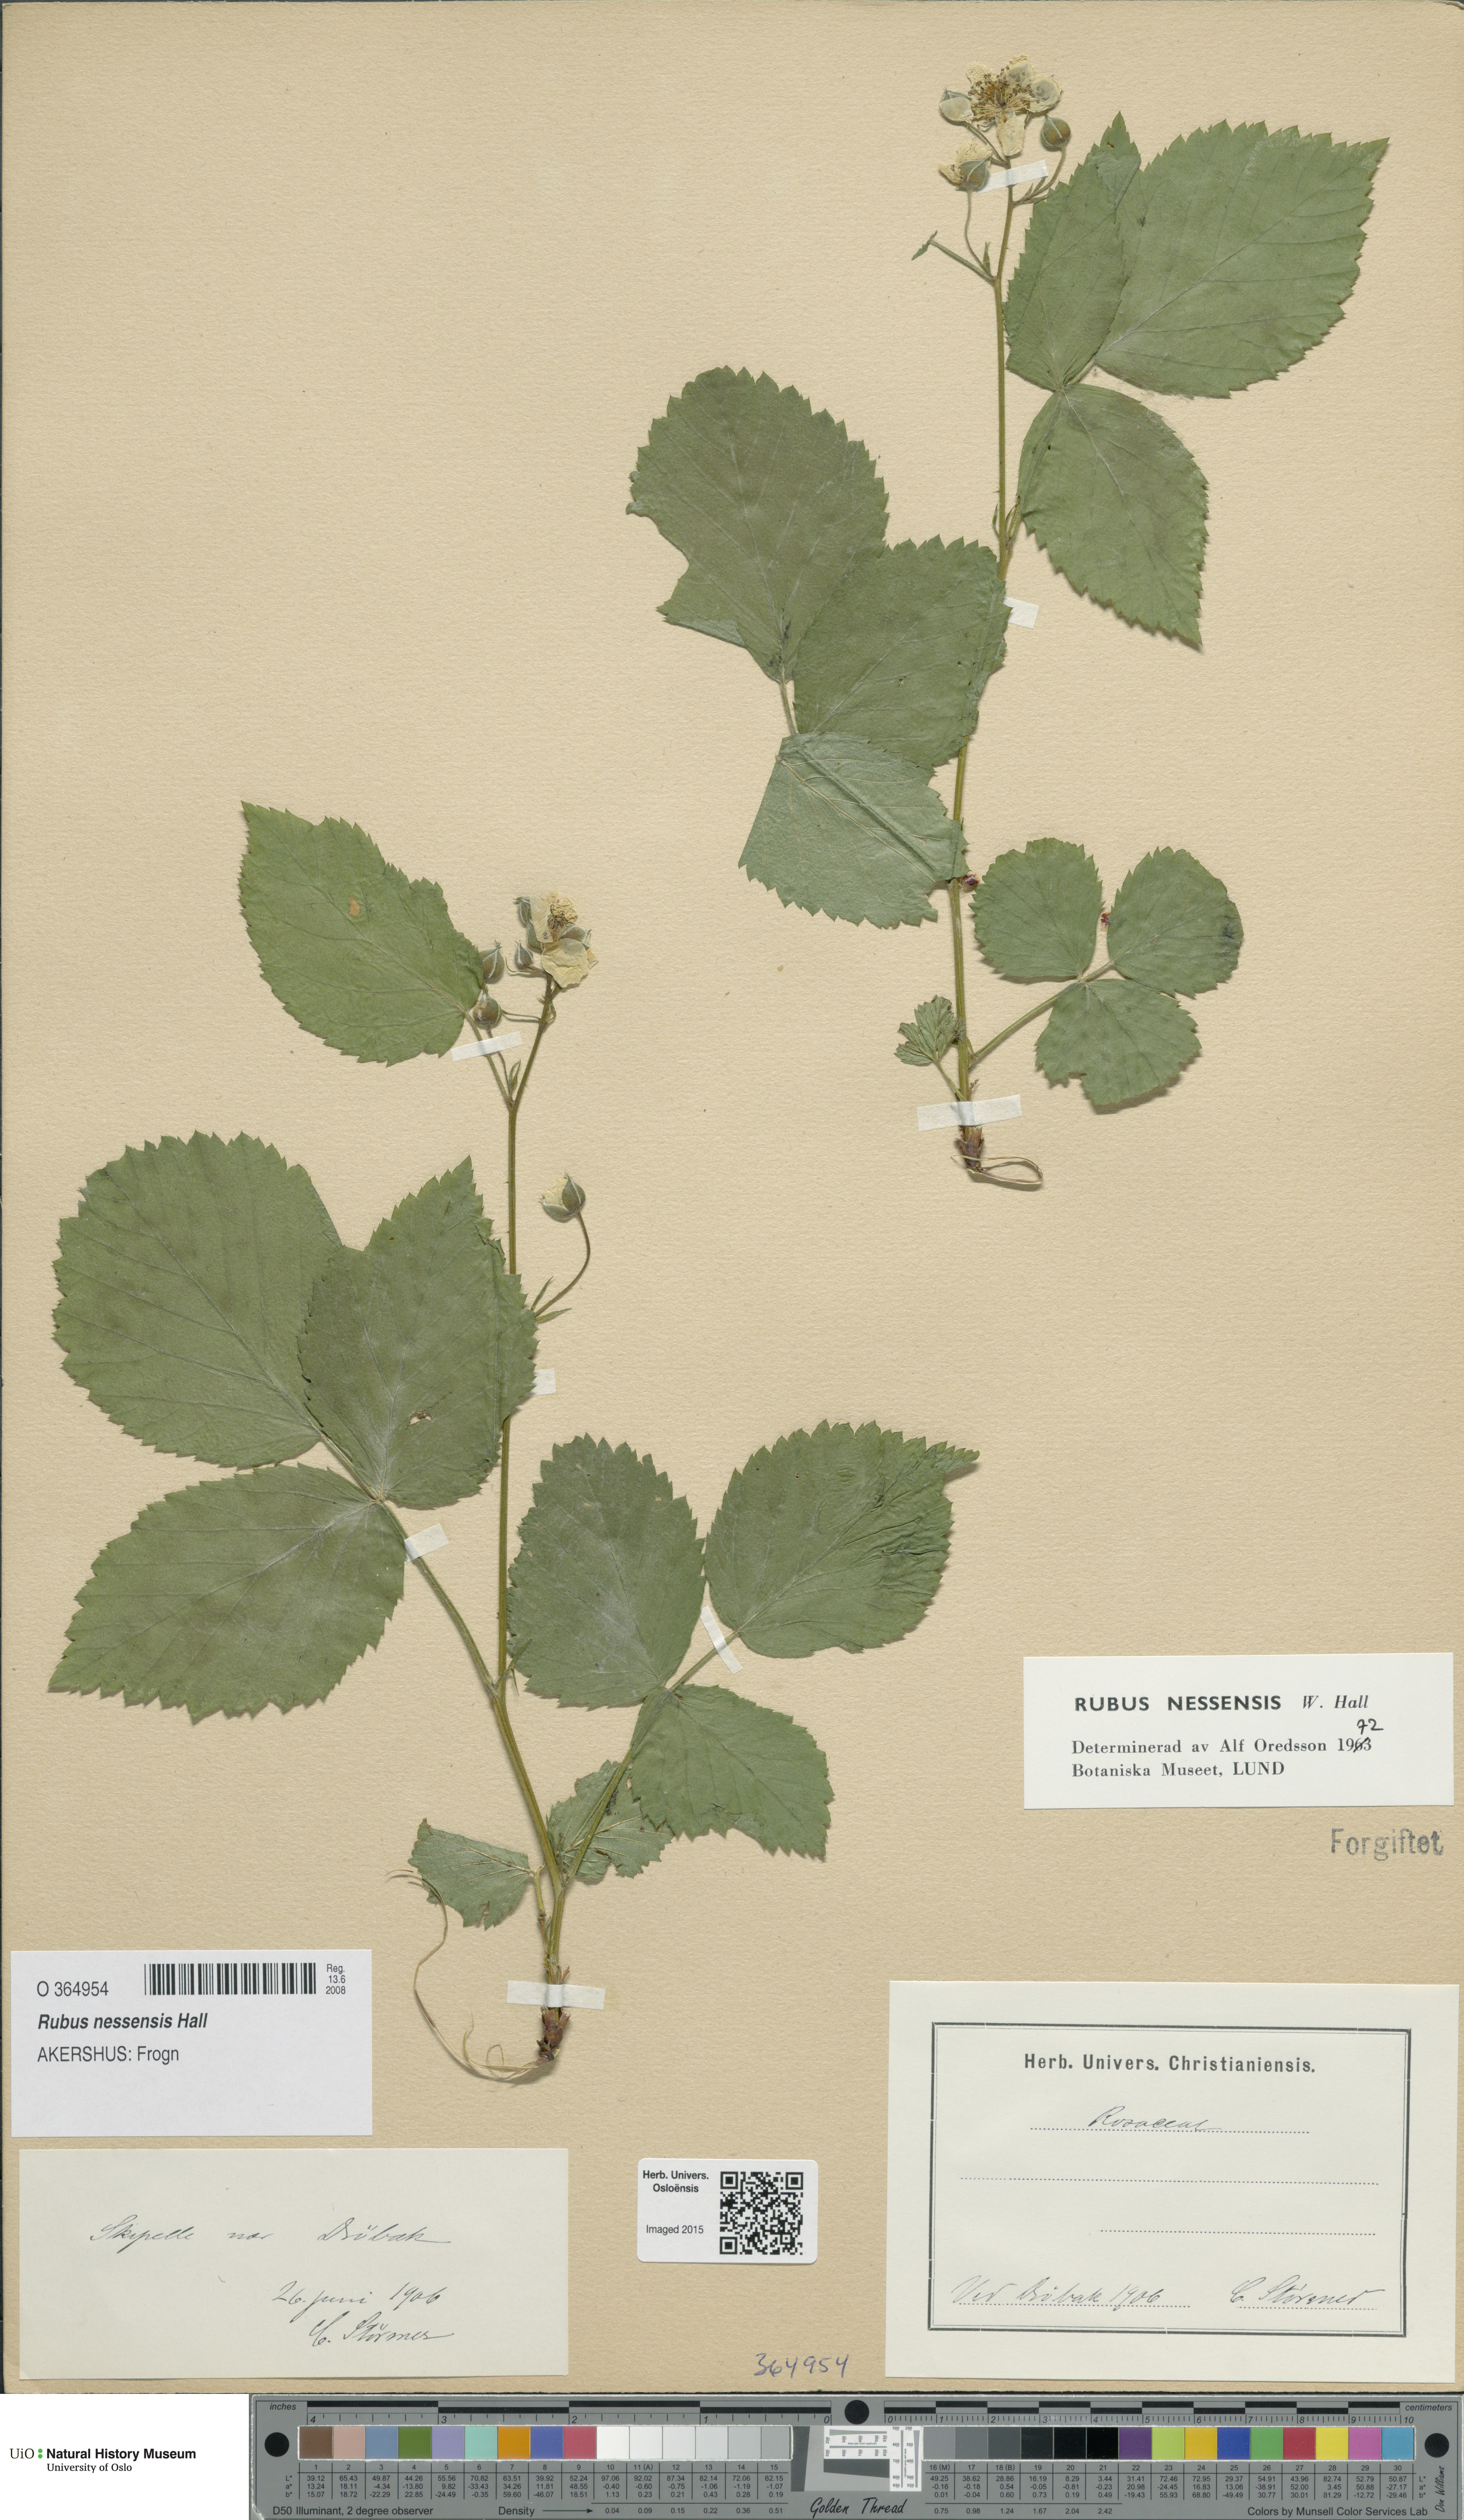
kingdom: Plantae
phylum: Tracheophyta
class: Magnoliopsida
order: Rosales
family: Rosaceae
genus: Rubus
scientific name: Rubus polonicus
